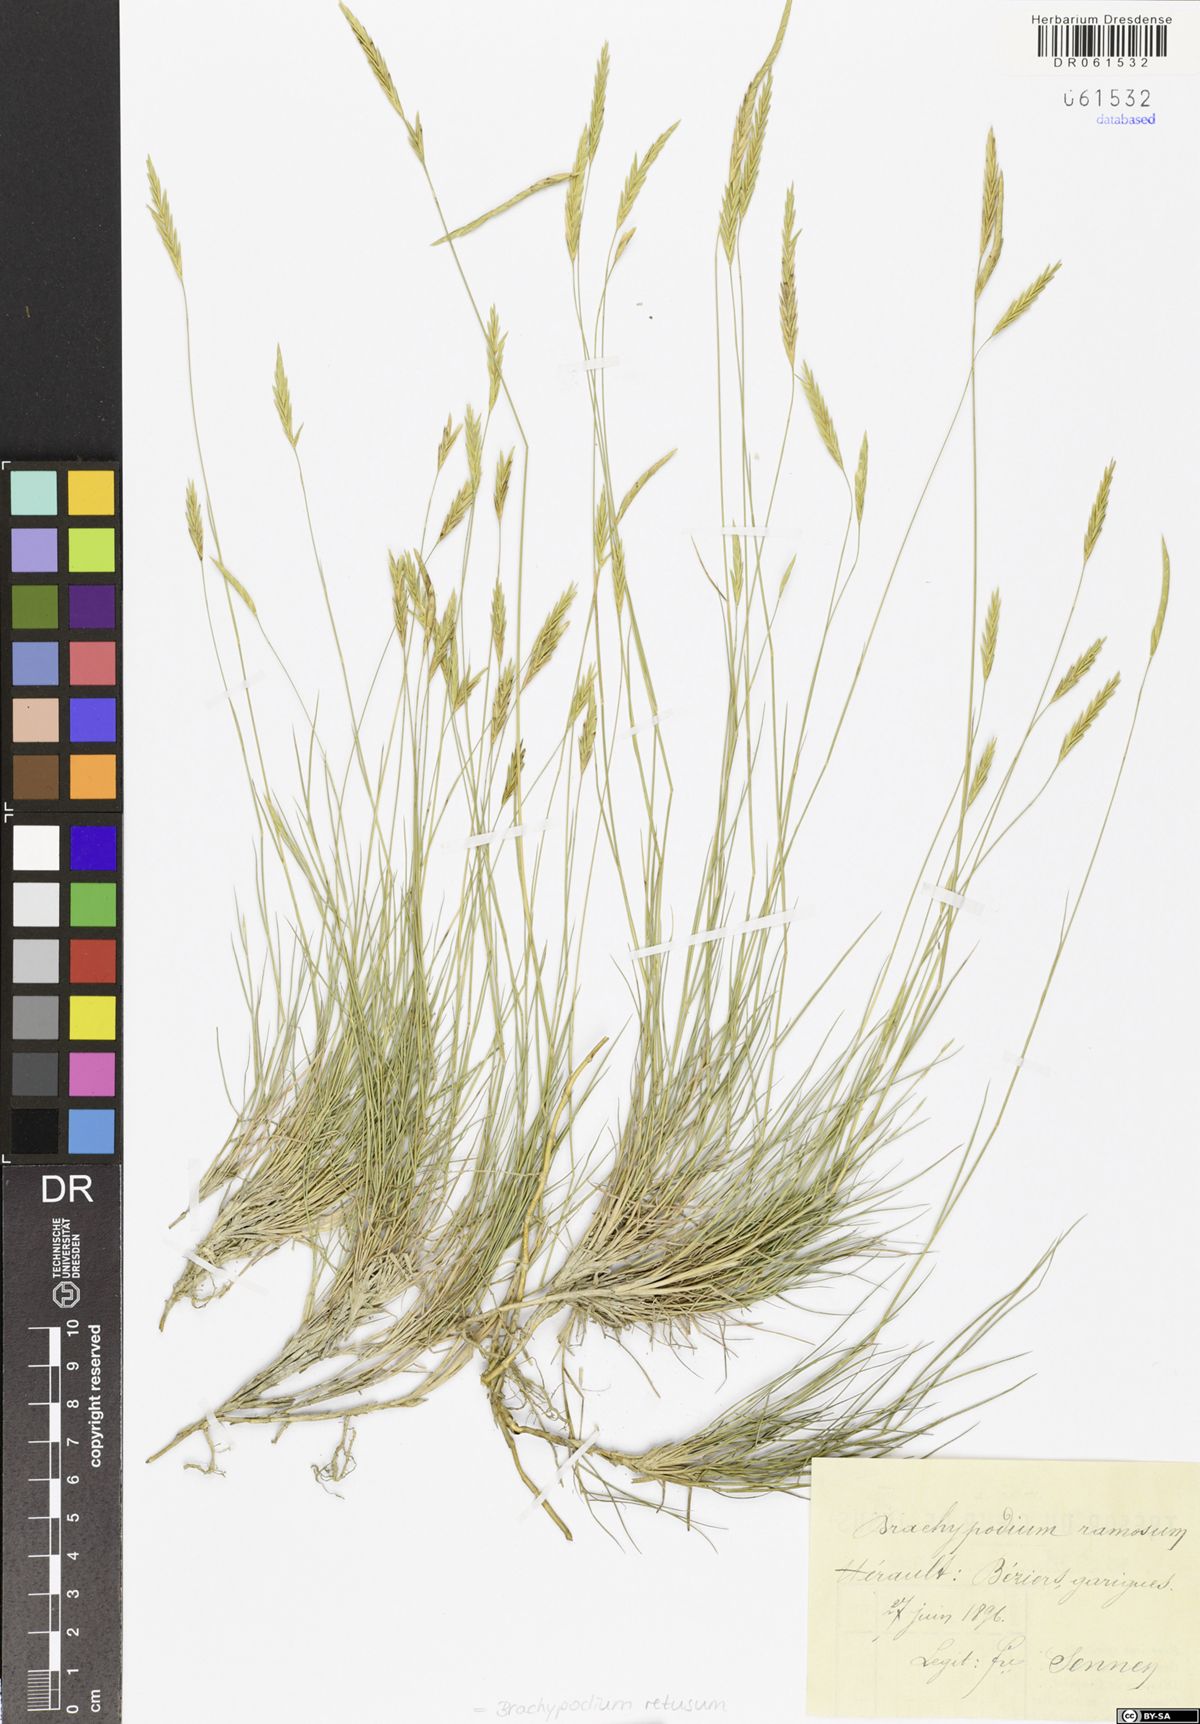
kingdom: Plantae
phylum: Tracheophyta
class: Liliopsida
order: Poales
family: Poaceae
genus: Brachypodium
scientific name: Brachypodium retusum
